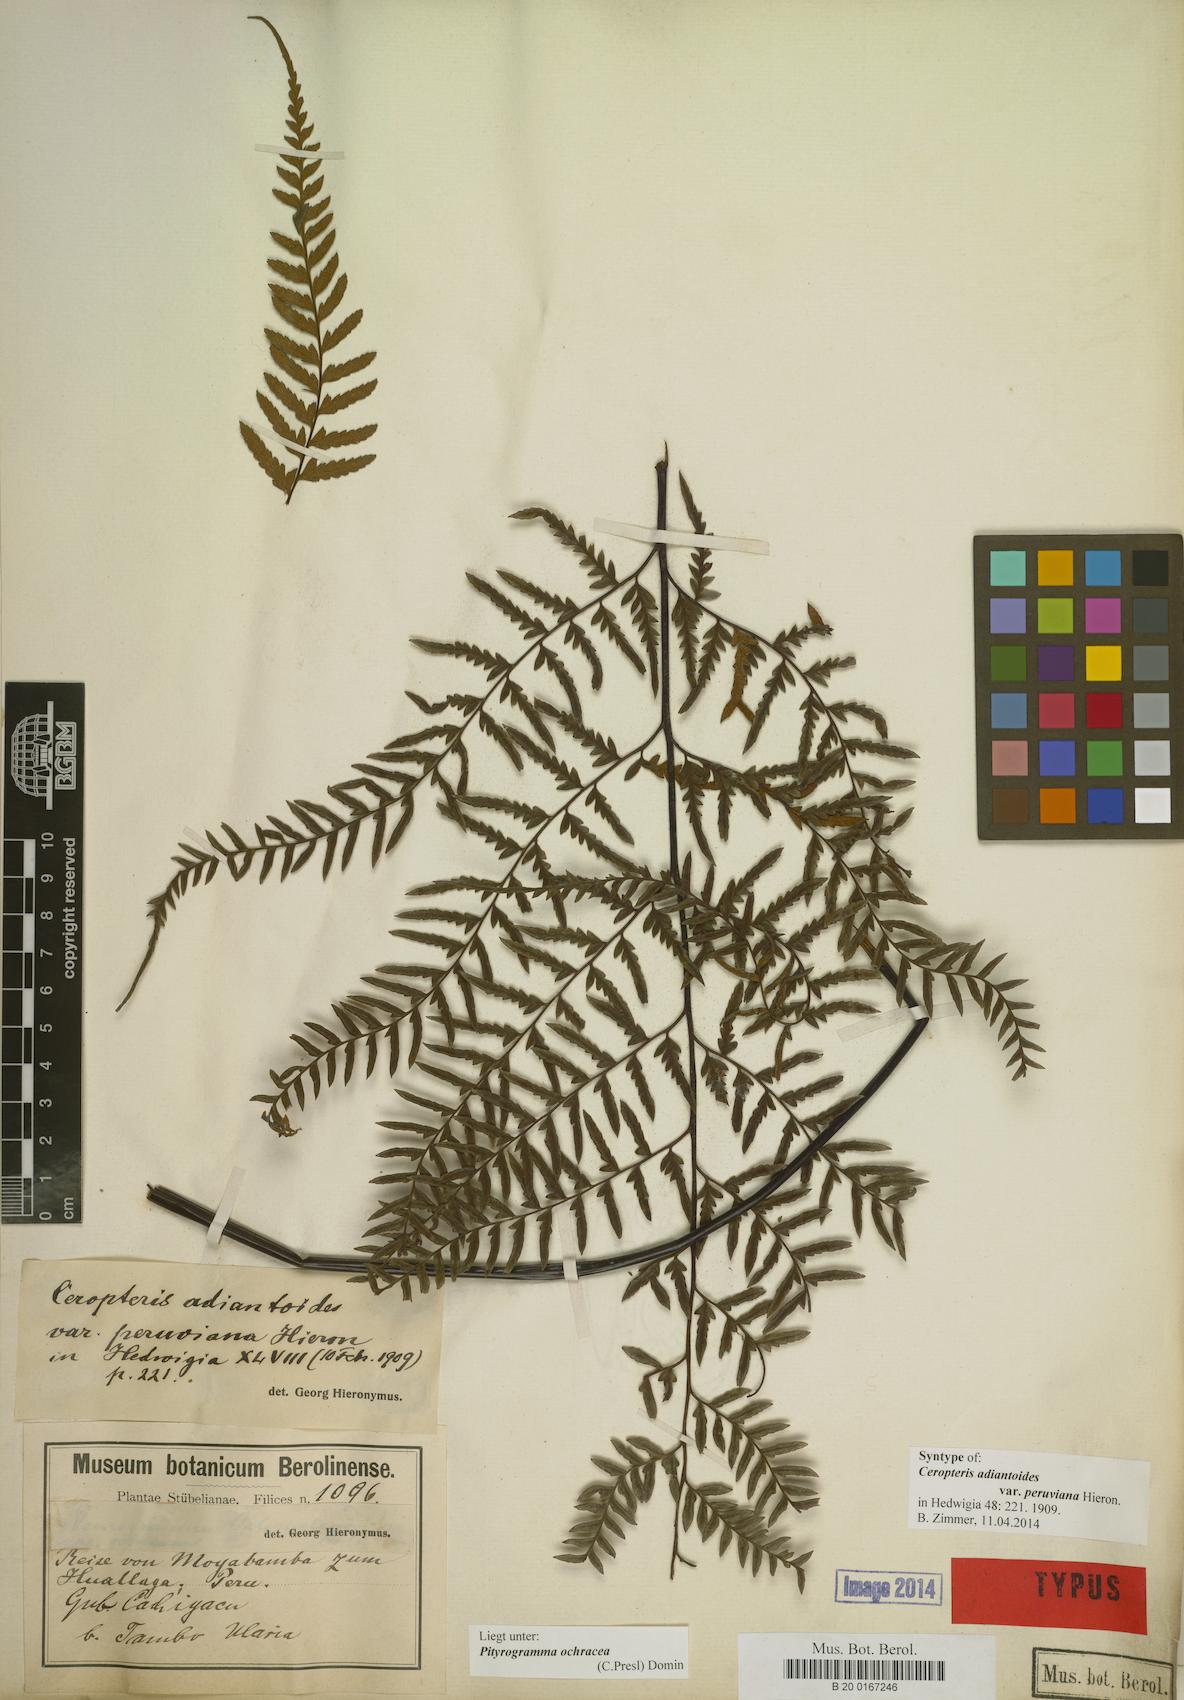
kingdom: Plantae
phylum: Tracheophyta
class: Polypodiopsida
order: Polypodiales
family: Pteridaceae
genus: Pityrogramma
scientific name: Pityrogramma ochracea
